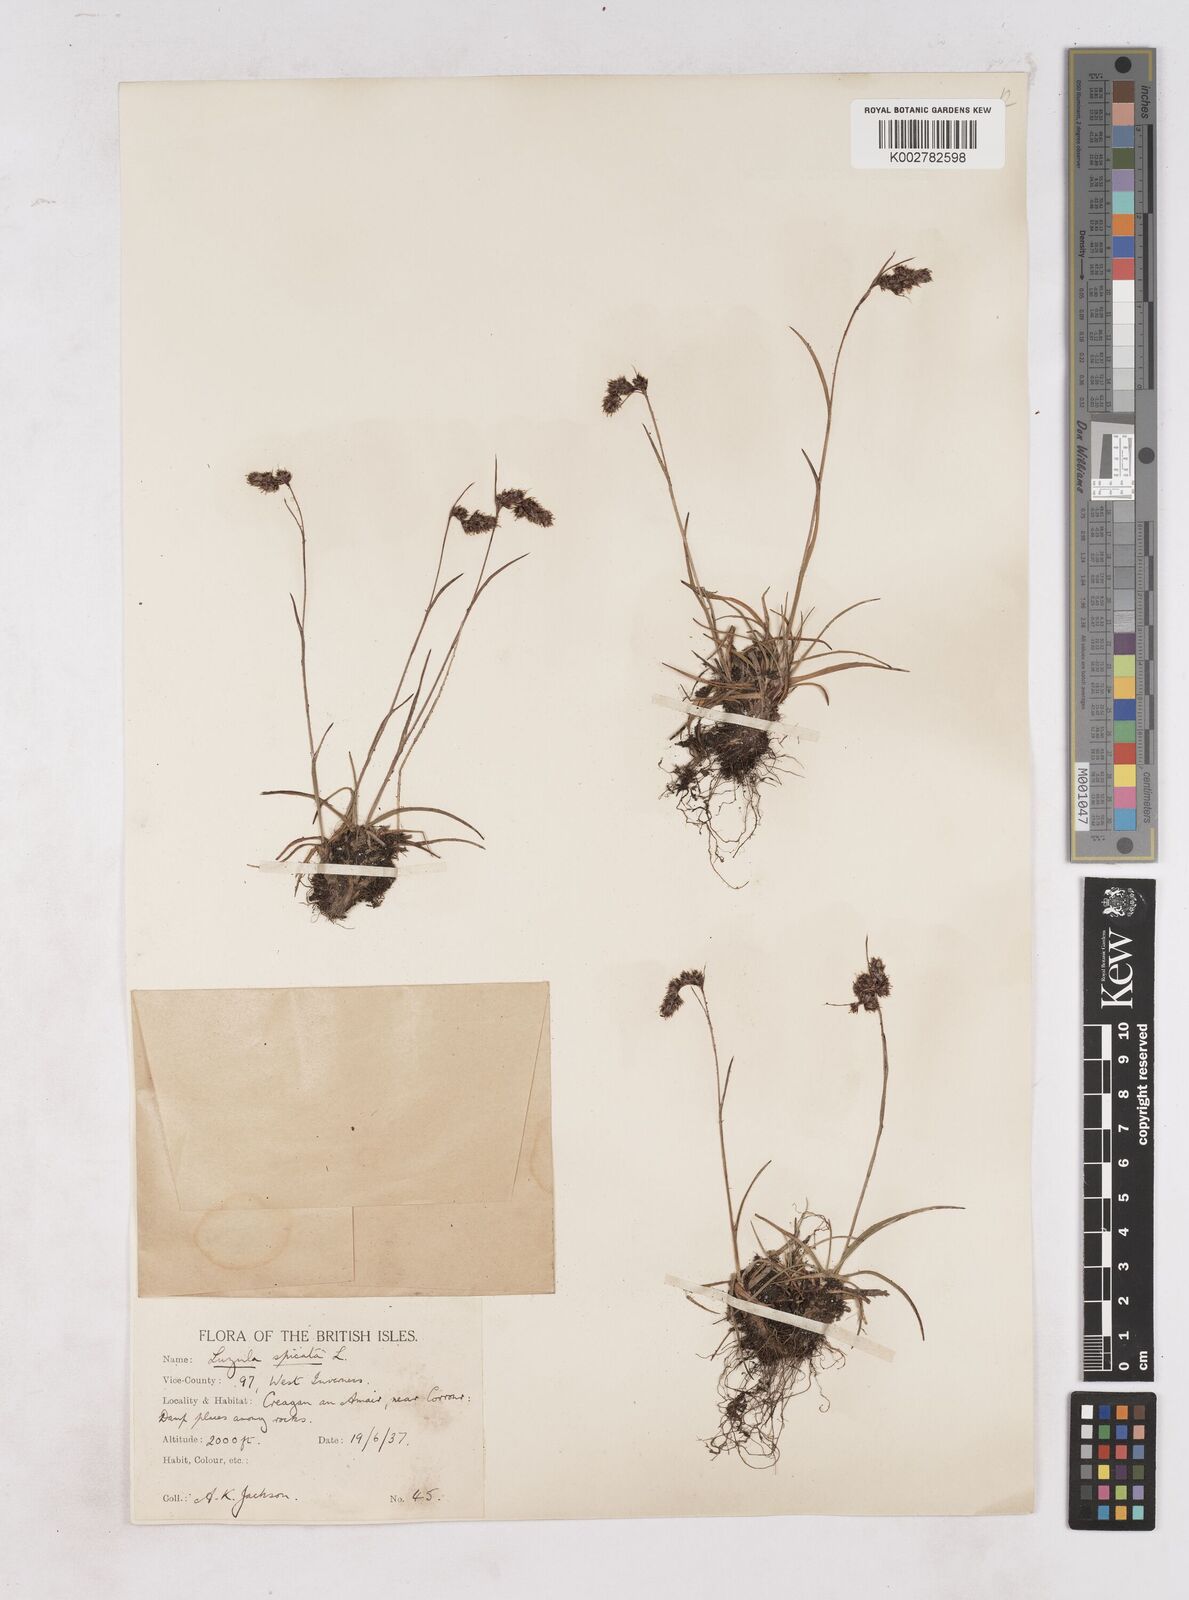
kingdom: Plantae
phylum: Tracheophyta
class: Liliopsida
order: Poales
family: Juncaceae
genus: Luzula
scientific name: Luzula spicata
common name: Spiked wood-rush
